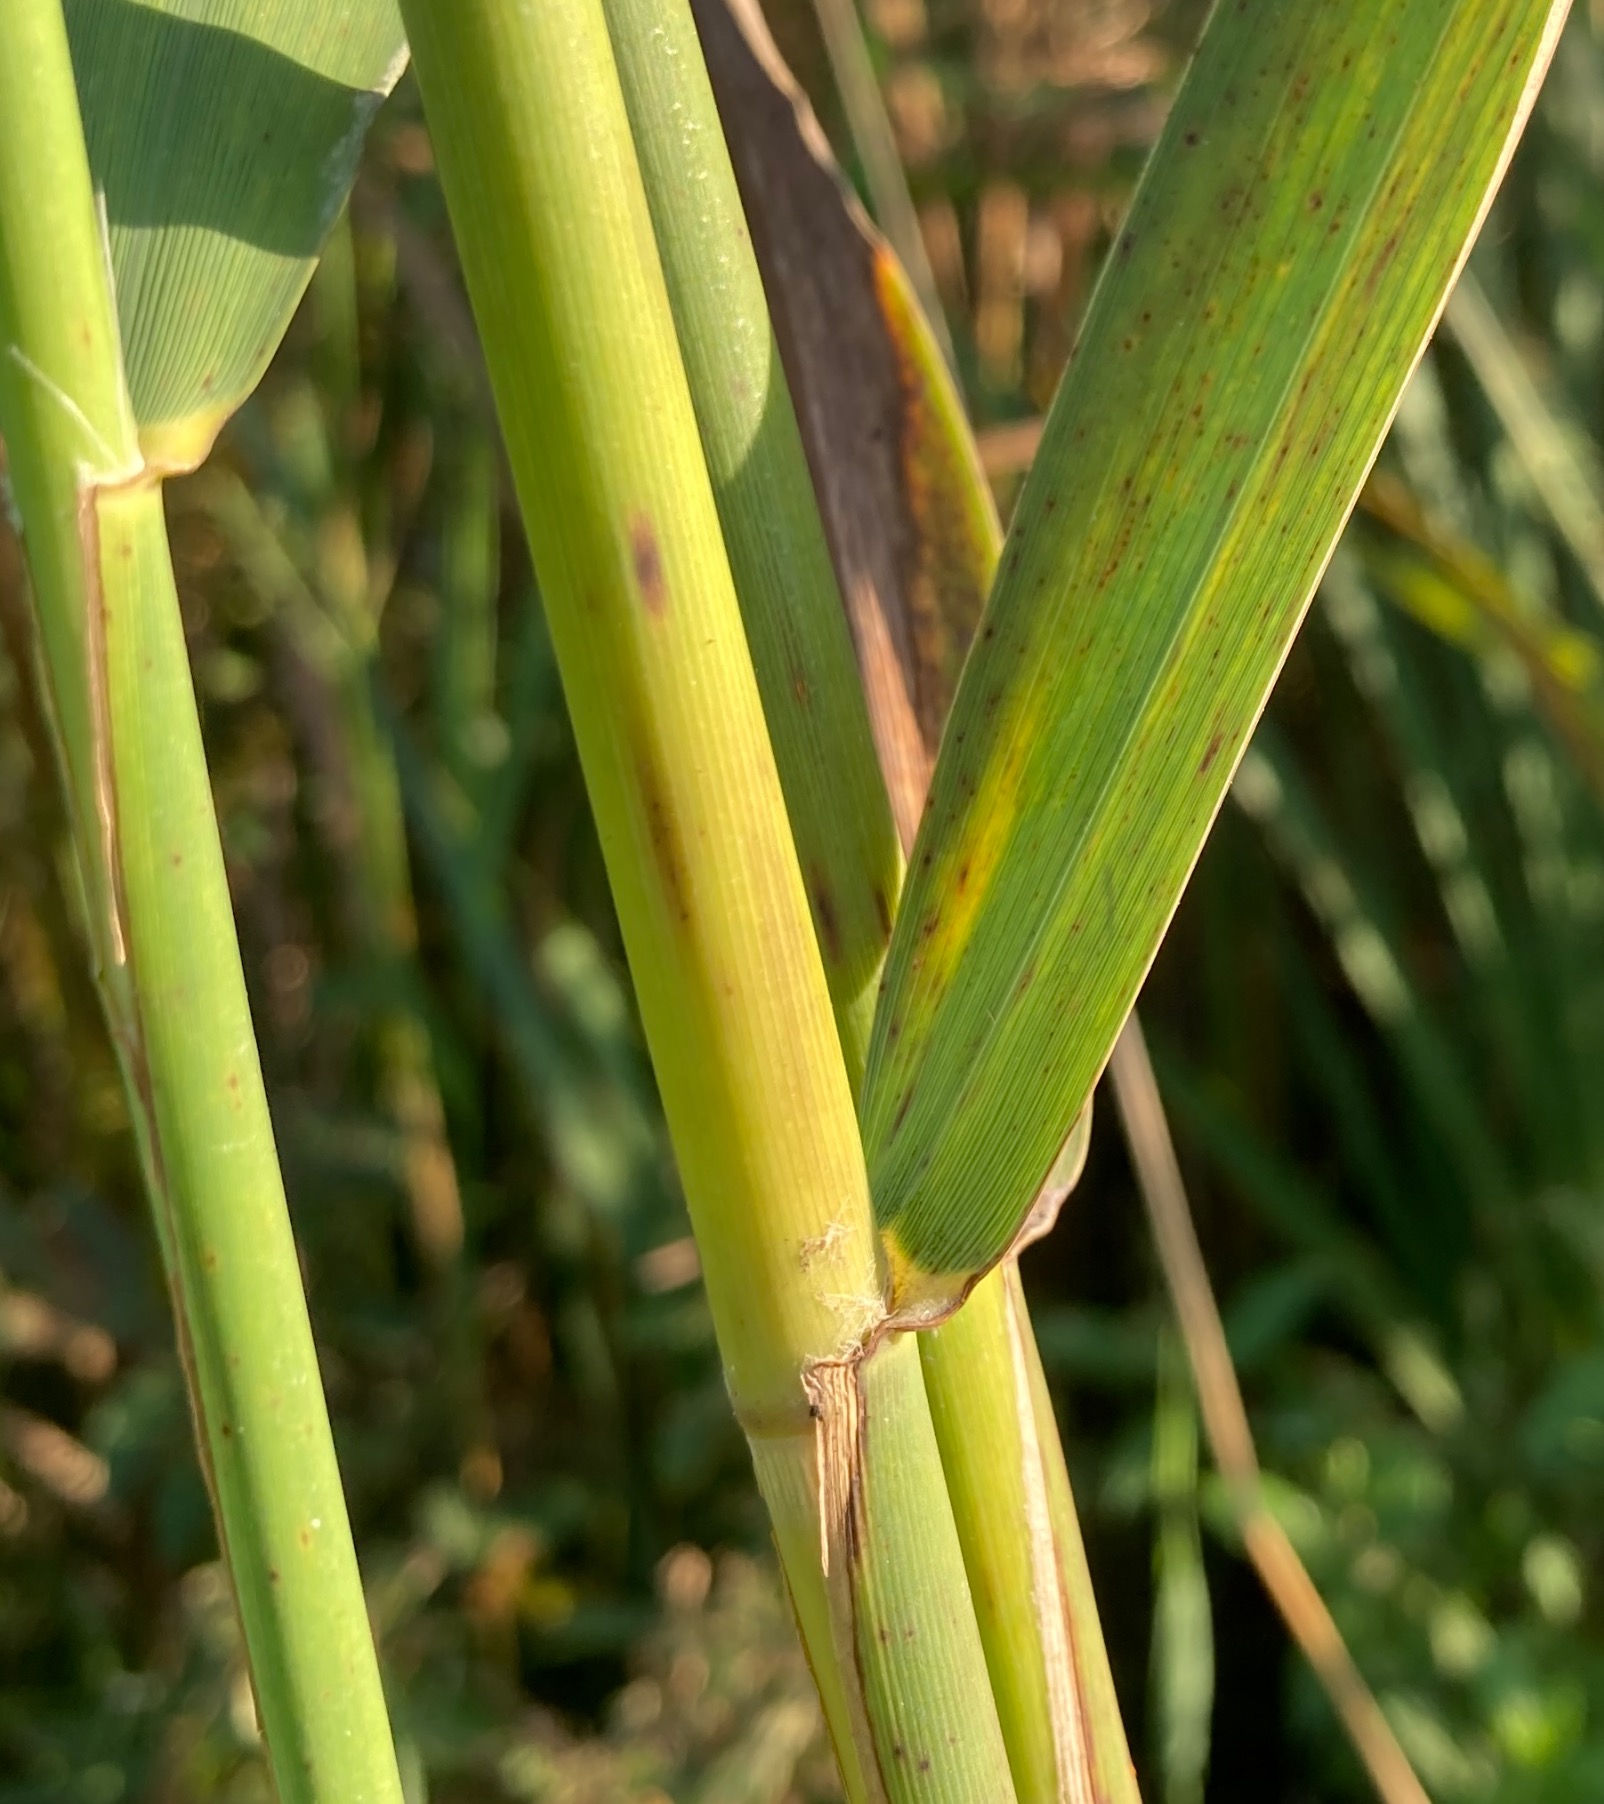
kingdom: Plantae
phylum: Tracheophyta
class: Liliopsida
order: Poales
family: Poaceae
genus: Phragmites
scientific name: Phragmites australis
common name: Tagrør
